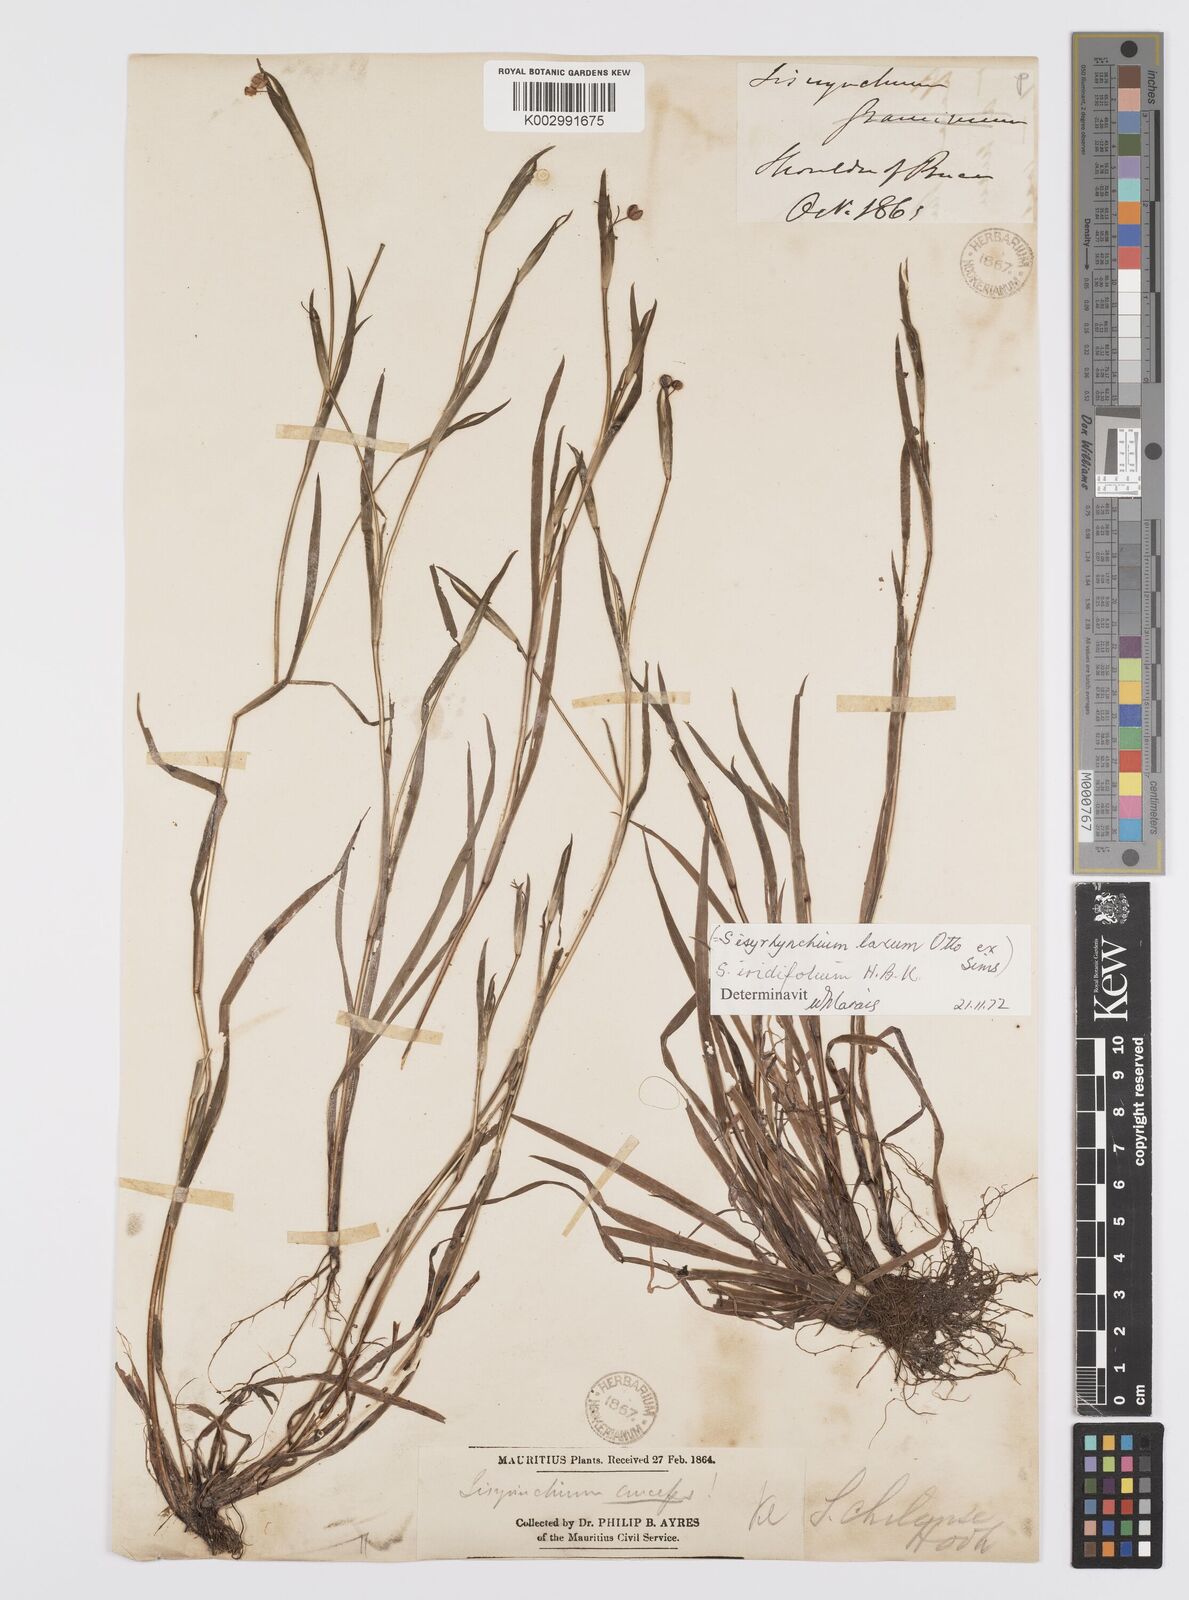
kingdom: Plantae
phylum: Tracheophyta
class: Liliopsida
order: Asparagales
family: Iridaceae
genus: Sisyrinchium
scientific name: Sisyrinchium micranthum
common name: Bermuda pigroot
